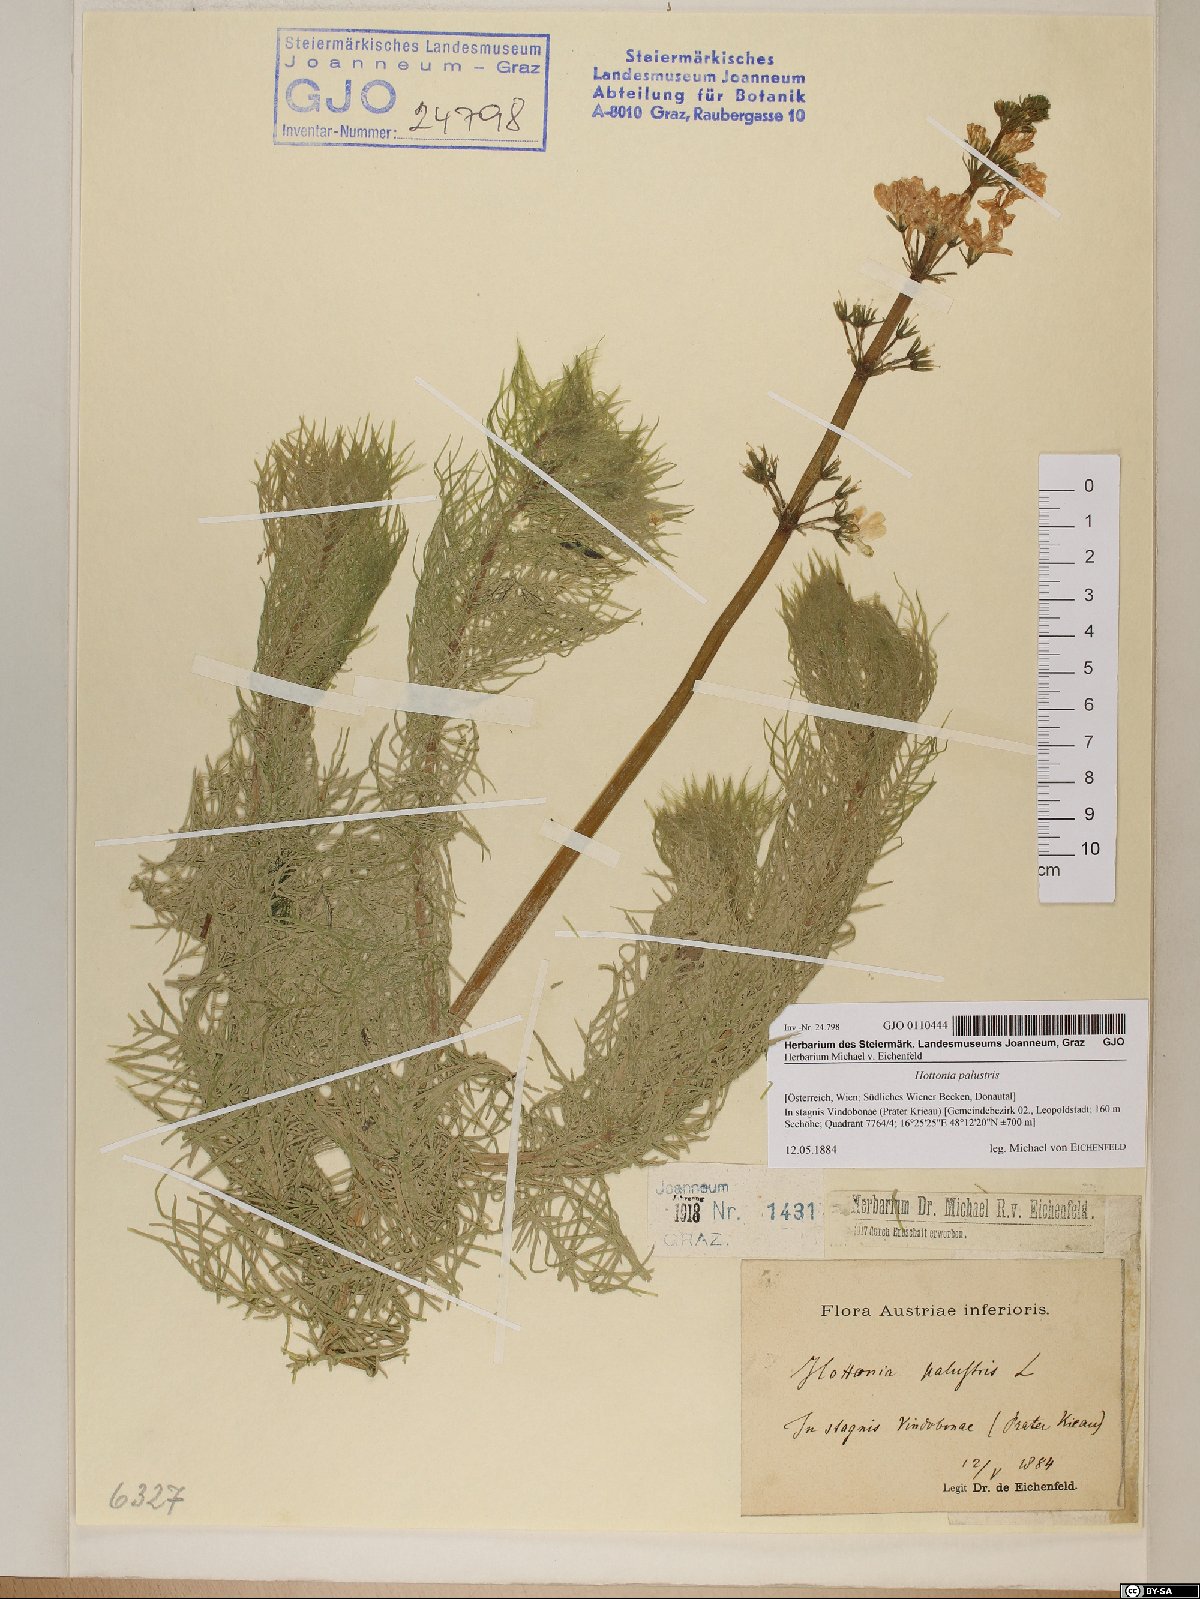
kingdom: Plantae
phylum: Tracheophyta
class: Magnoliopsida
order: Ericales
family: Primulaceae
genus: Hottonia
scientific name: Hottonia palustris
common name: Water-violet
